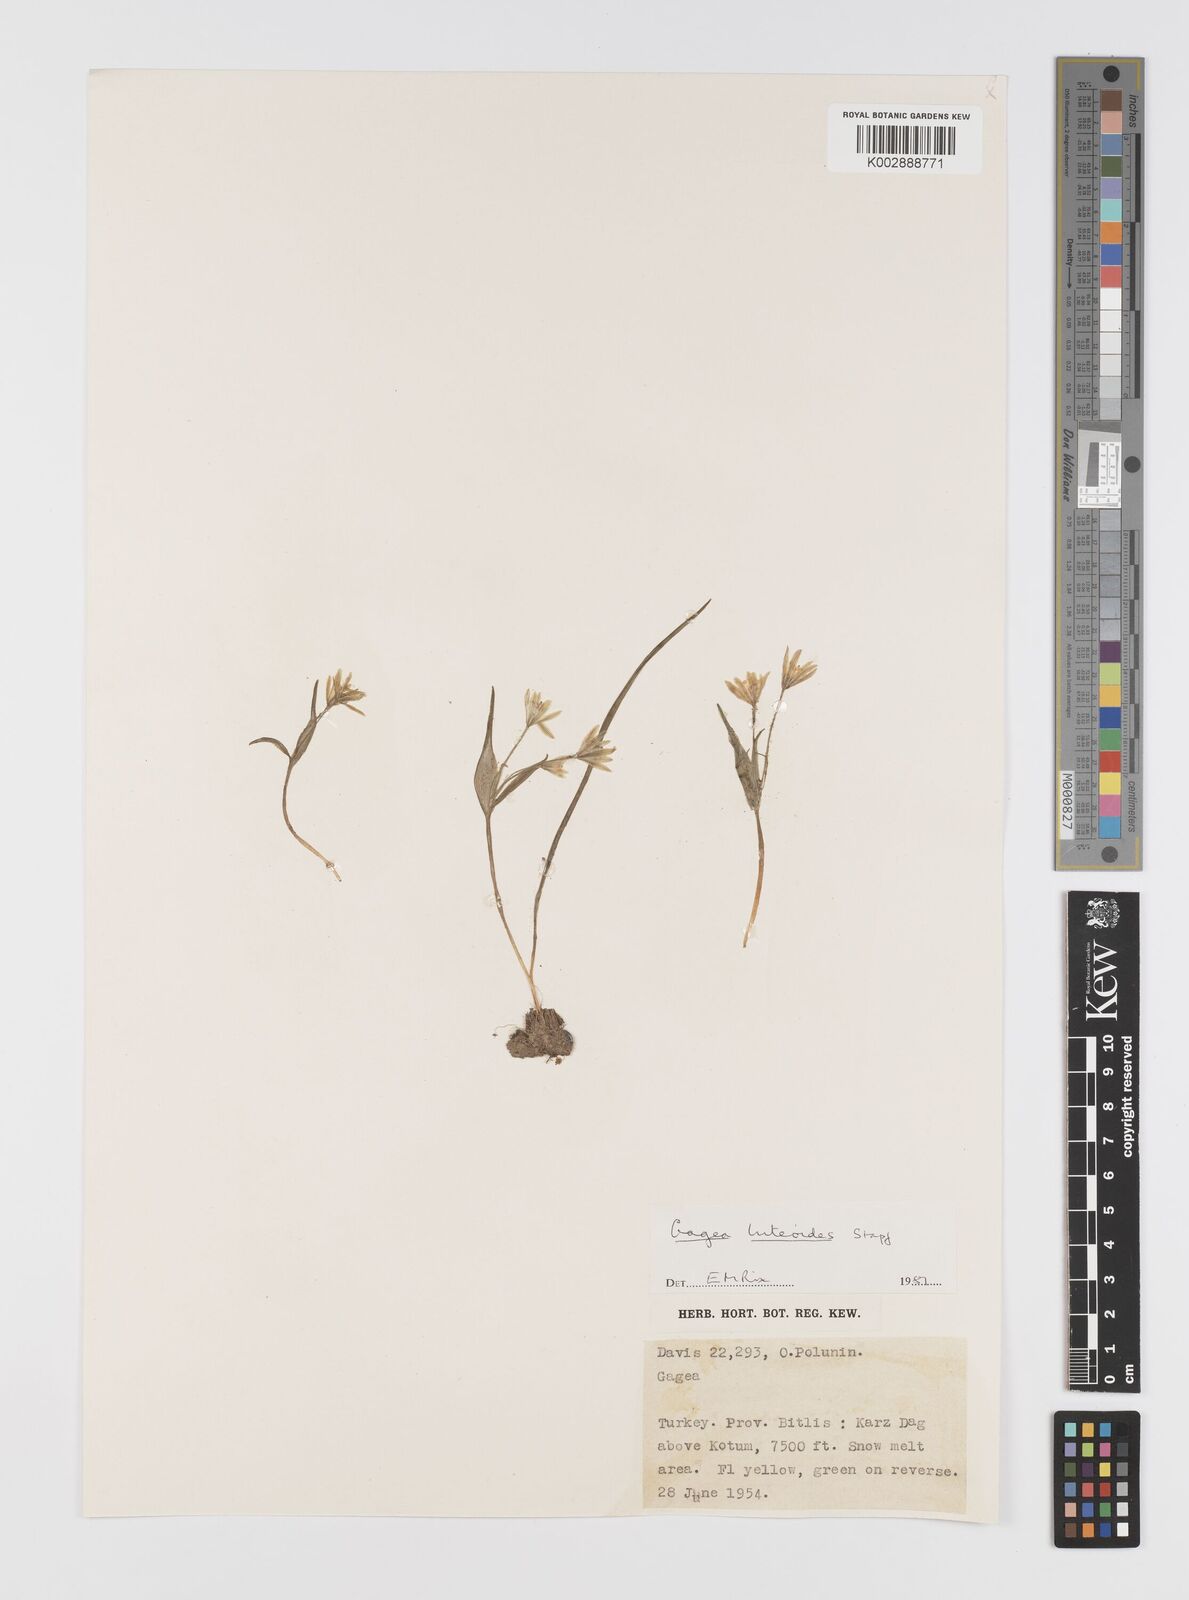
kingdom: Plantae
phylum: Tracheophyta
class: Liliopsida
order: Liliales
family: Liliaceae
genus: Gagea
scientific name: Gagea luteoides
